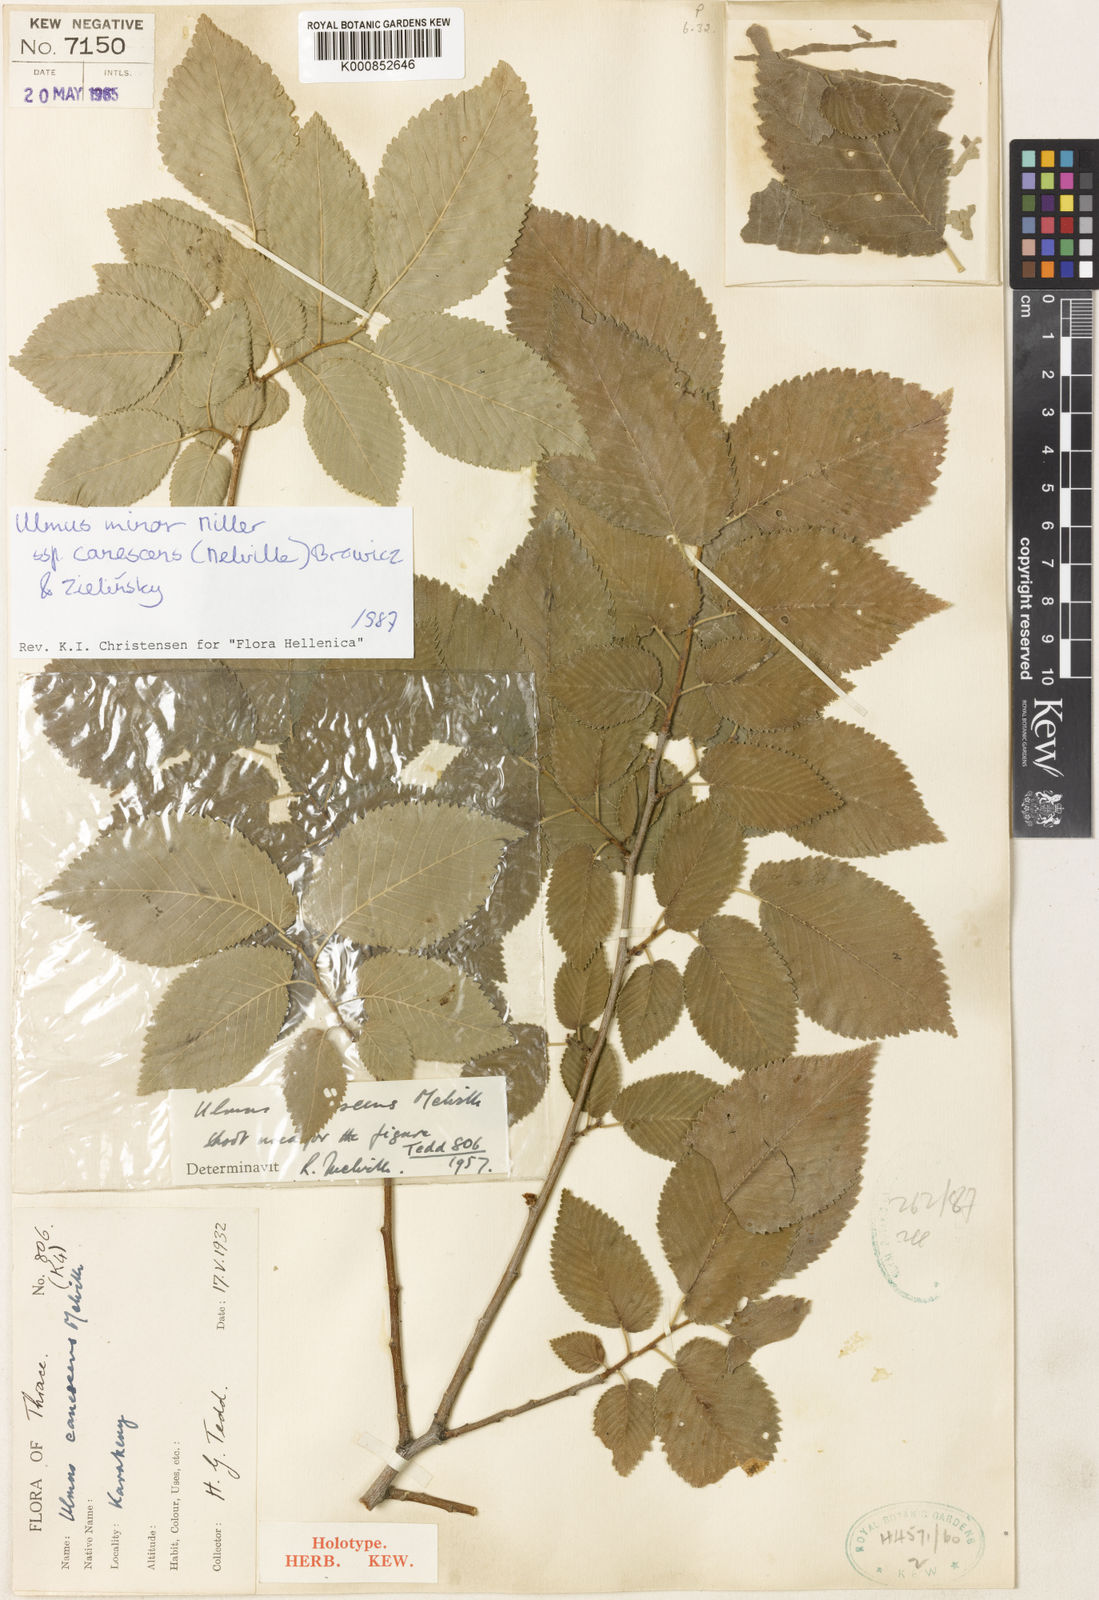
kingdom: Plantae
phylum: Tracheophyta
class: Magnoliopsida
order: Rosales
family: Ulmaceae
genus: Ulmus
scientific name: Ulmus minor
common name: Small-leaved elm
